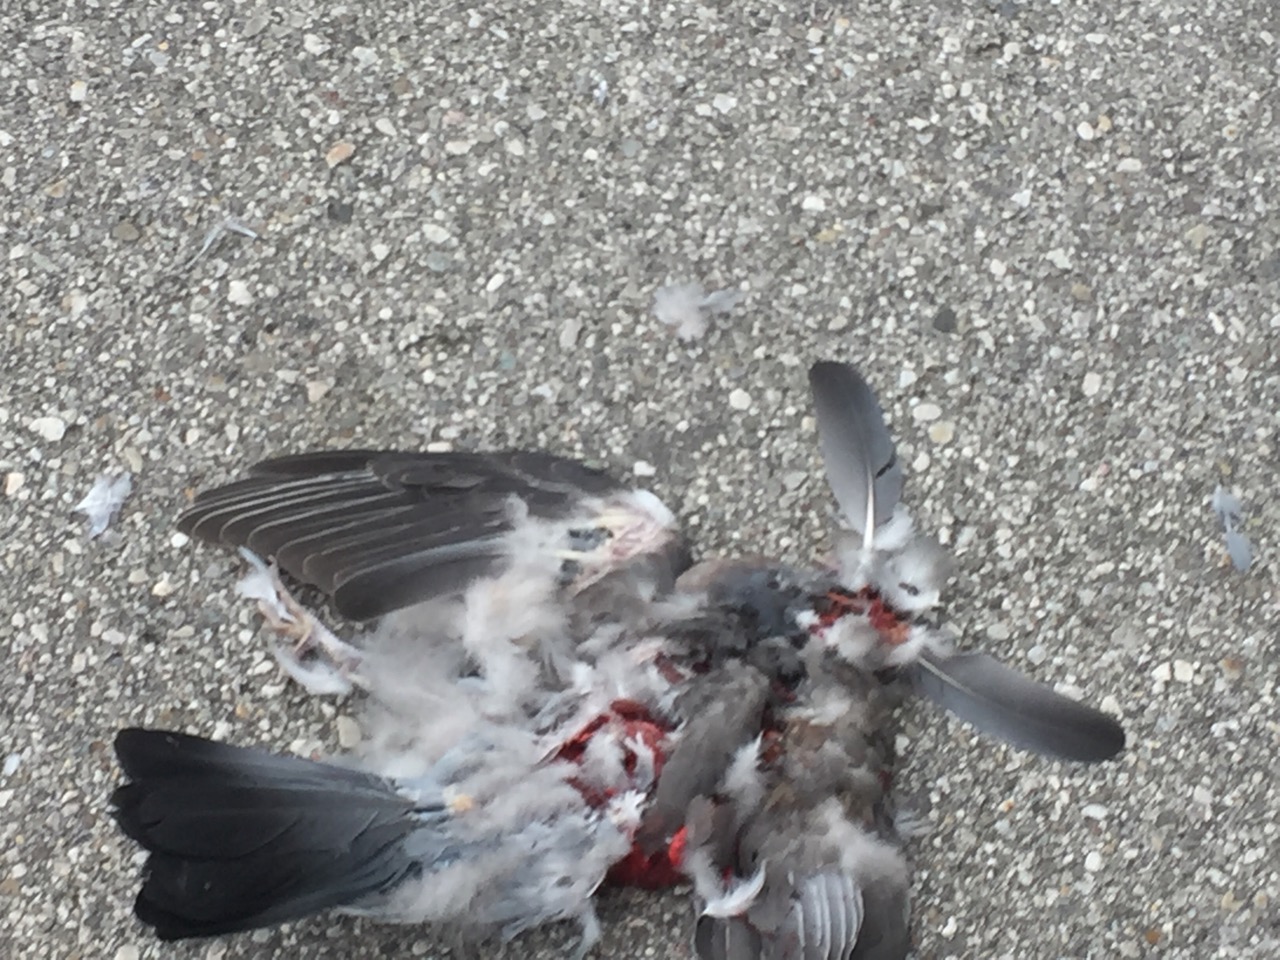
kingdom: Animalia
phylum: Chordata
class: Aves
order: Columbiformes
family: Columbidae
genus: Columba
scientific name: Columba livia
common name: Rock pigeon
